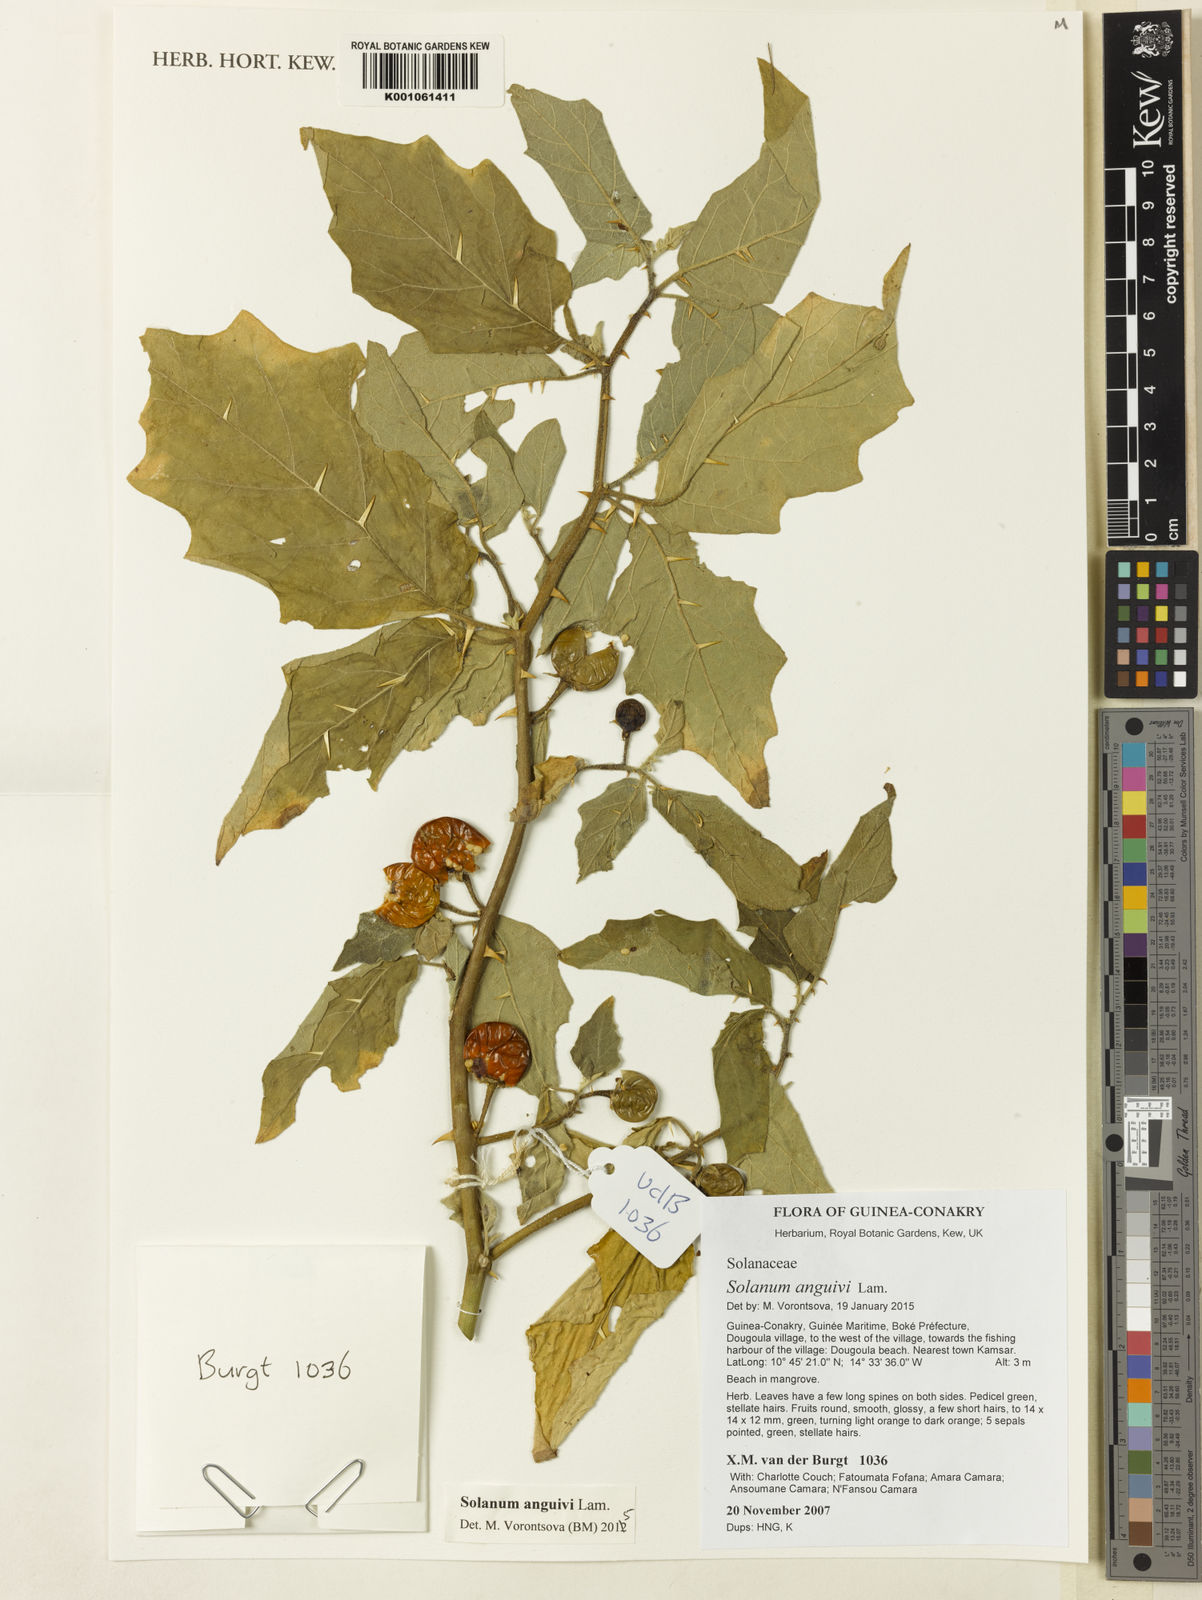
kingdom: Plantae
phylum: Tracheophyta
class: Magnoliopsida
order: Solanales
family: Solanaceae
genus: Solanum
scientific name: Solanum anguivi
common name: Forest bitterberry
